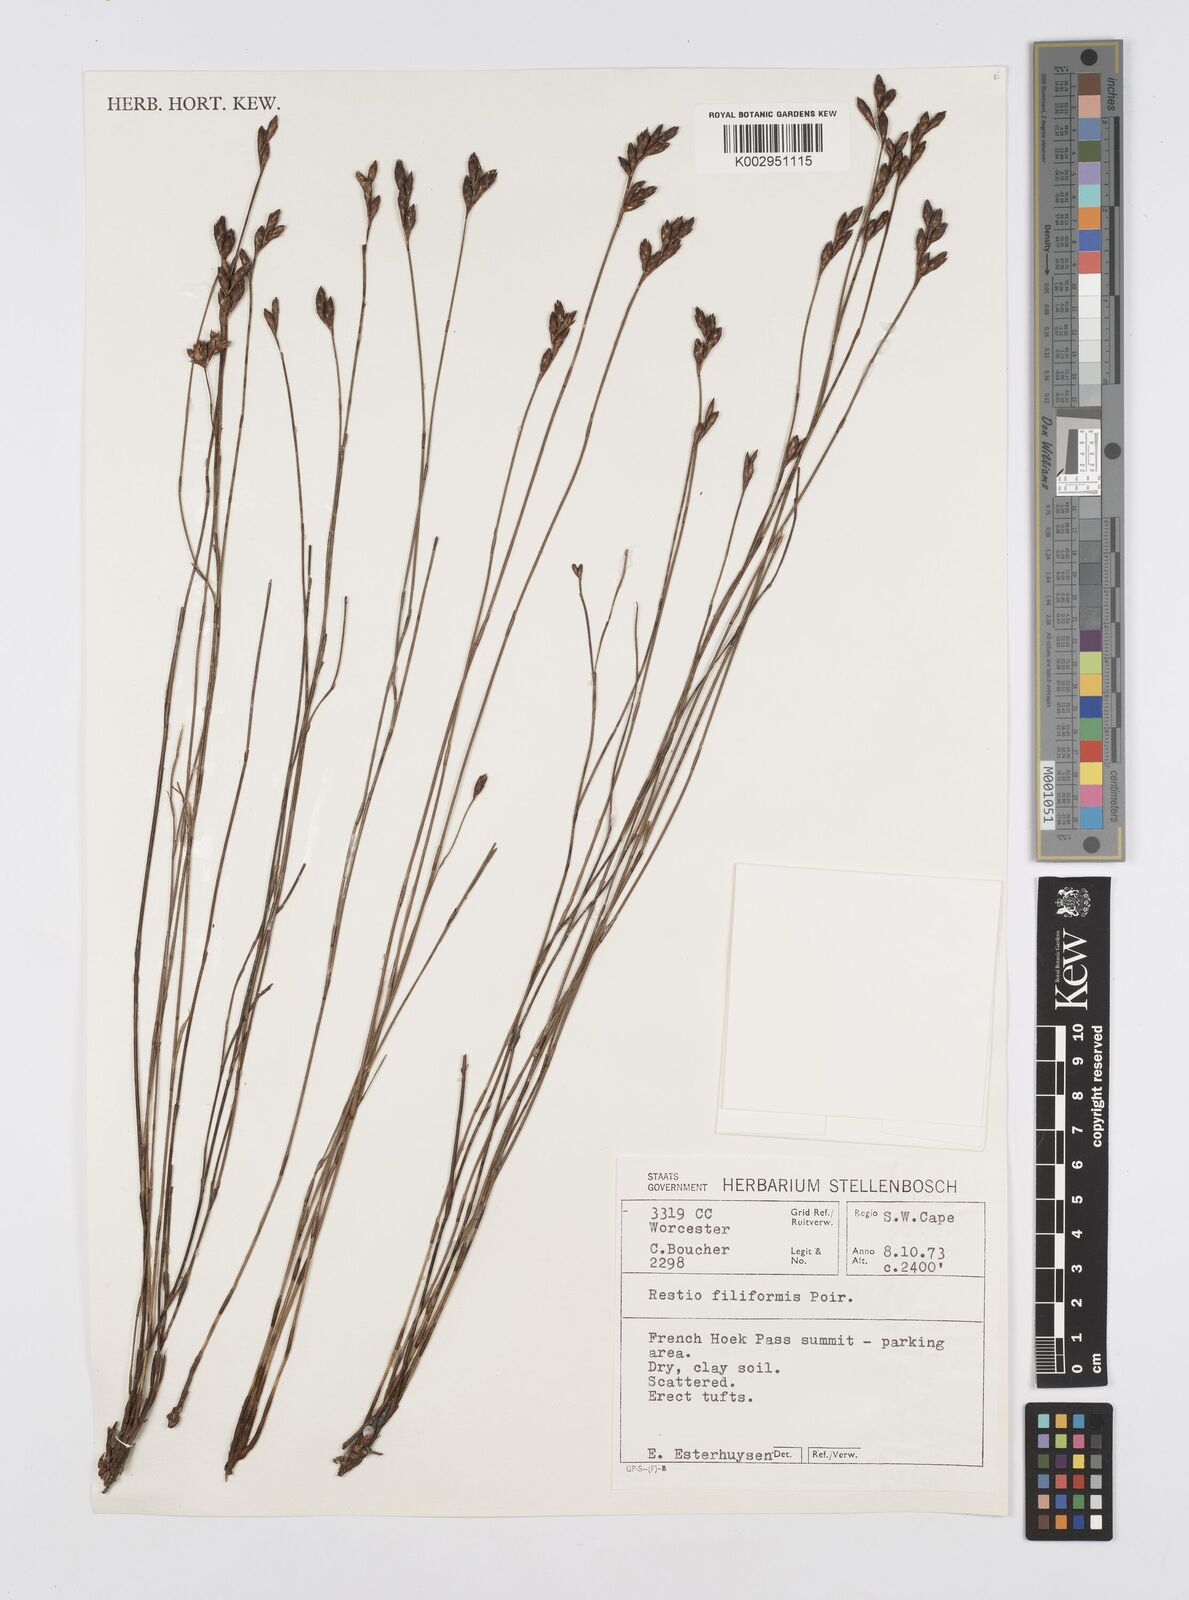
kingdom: Plantae
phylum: Tracheophyta
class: Liliopsida
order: Poales
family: Restionaceae
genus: Restio
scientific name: Restio filiformis
